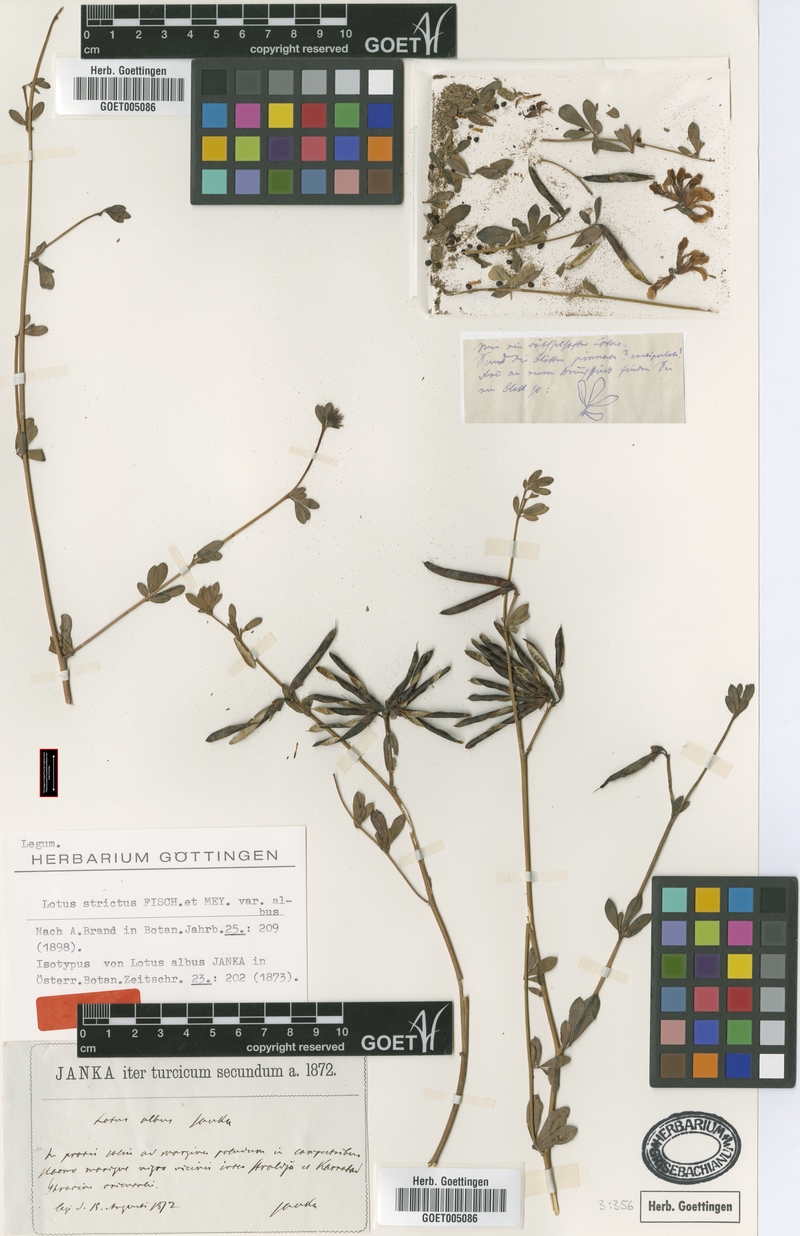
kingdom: Plantae
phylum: Tracheophyta
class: Magnoliopsida
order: Fabales
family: Fabaceae
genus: Lotus
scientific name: Lotus strictus
